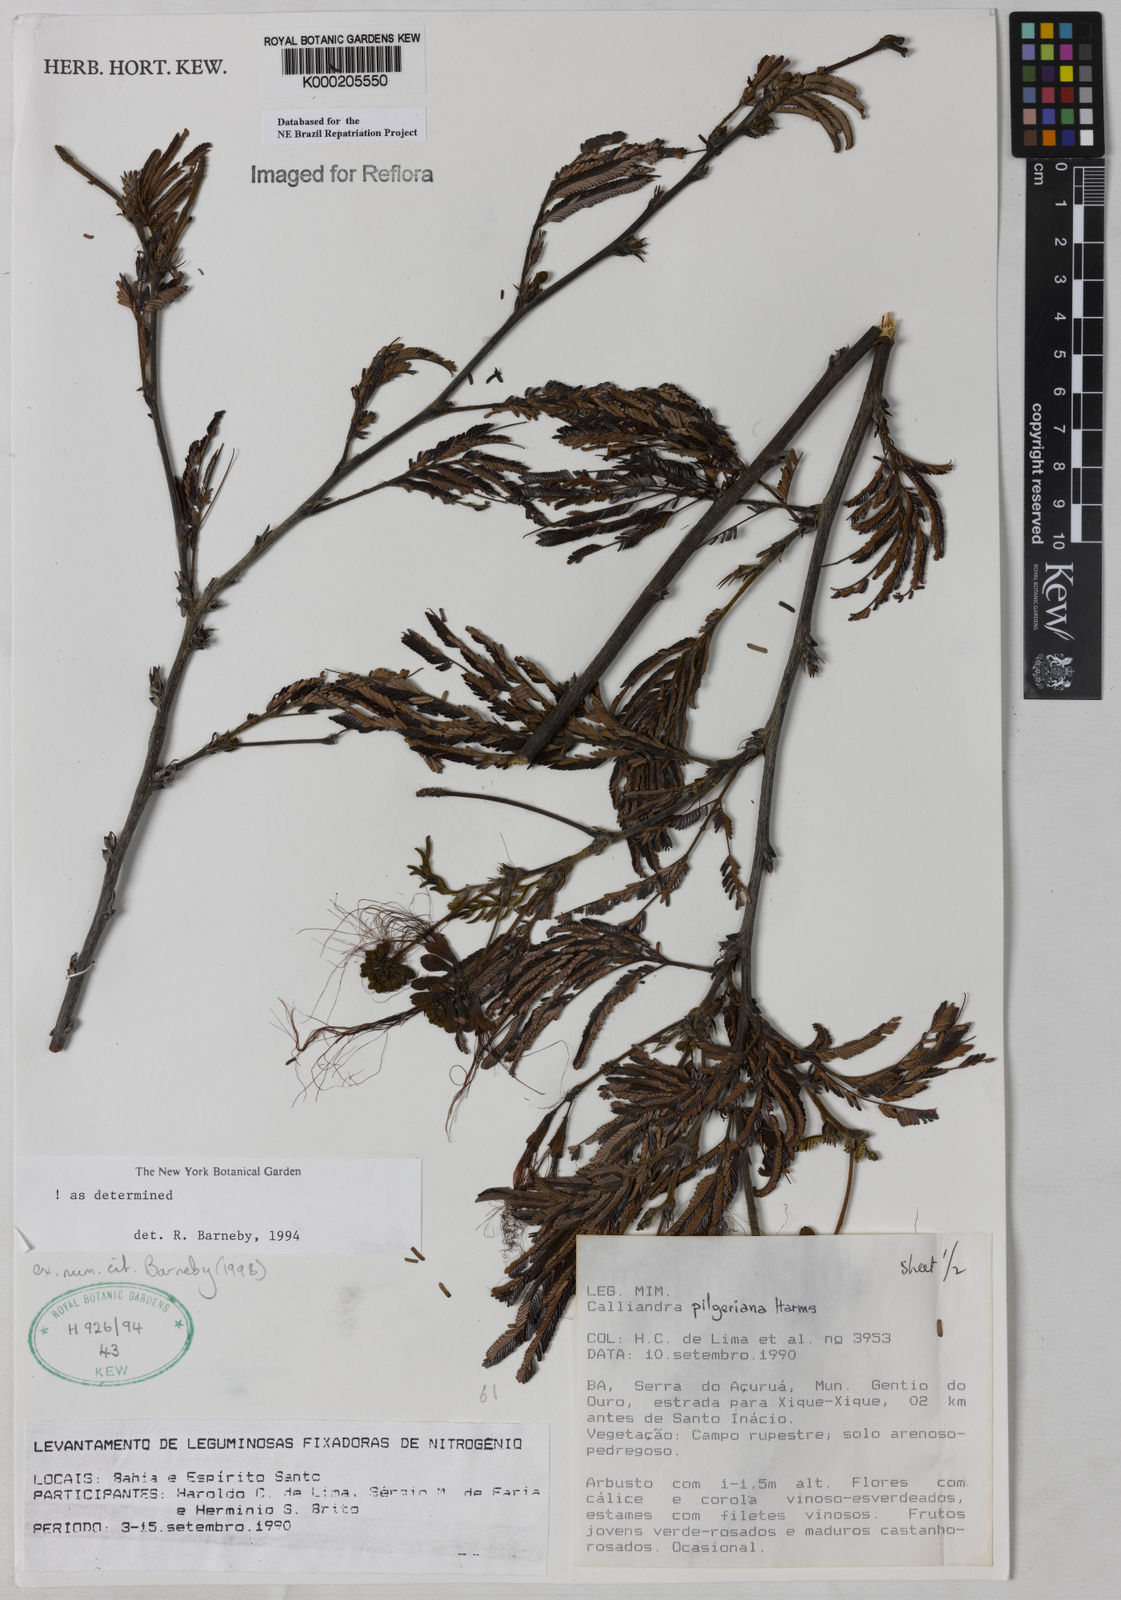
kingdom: Plantae
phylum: Tracheophyta
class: Magnoliopsida
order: Fabales
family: Fabaceae
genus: Calliandra
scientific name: Calliandra pilgeriana
